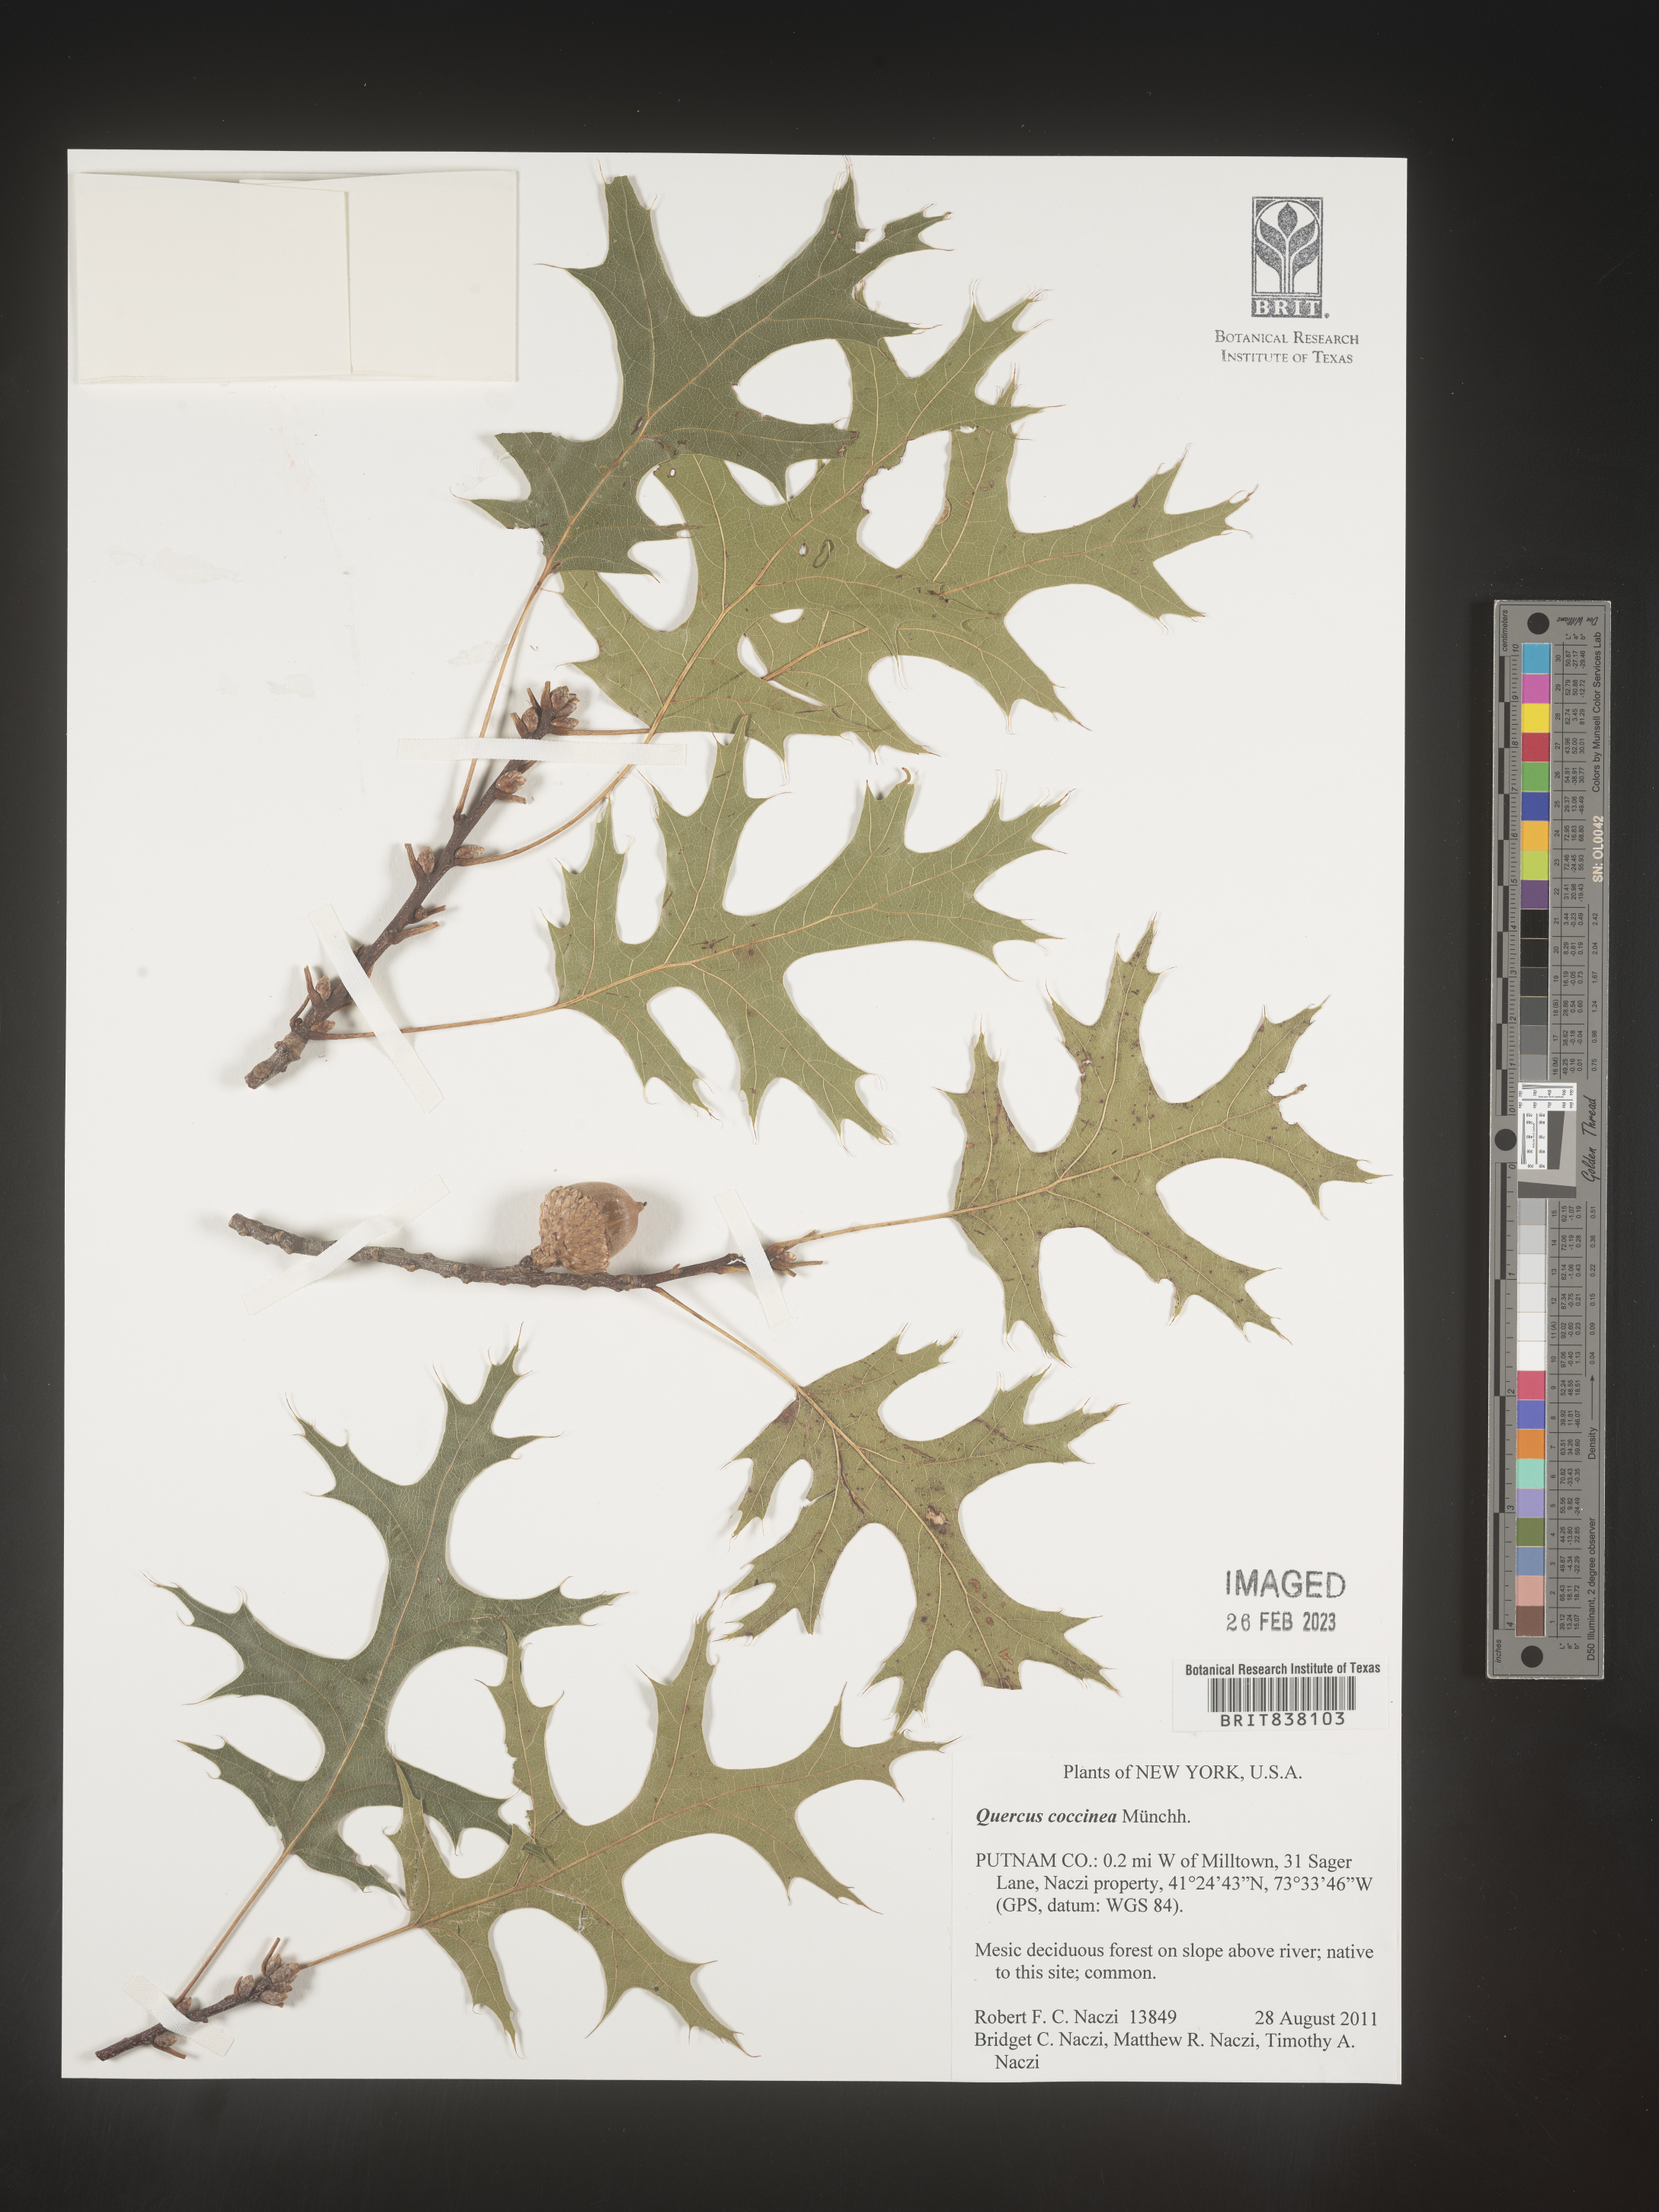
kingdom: Plantae
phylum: Tracheophyta
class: Magnoliopsida
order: Fagales
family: Fagaceae
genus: Quercus
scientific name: Quercus coccinea
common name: Scarlet oak
